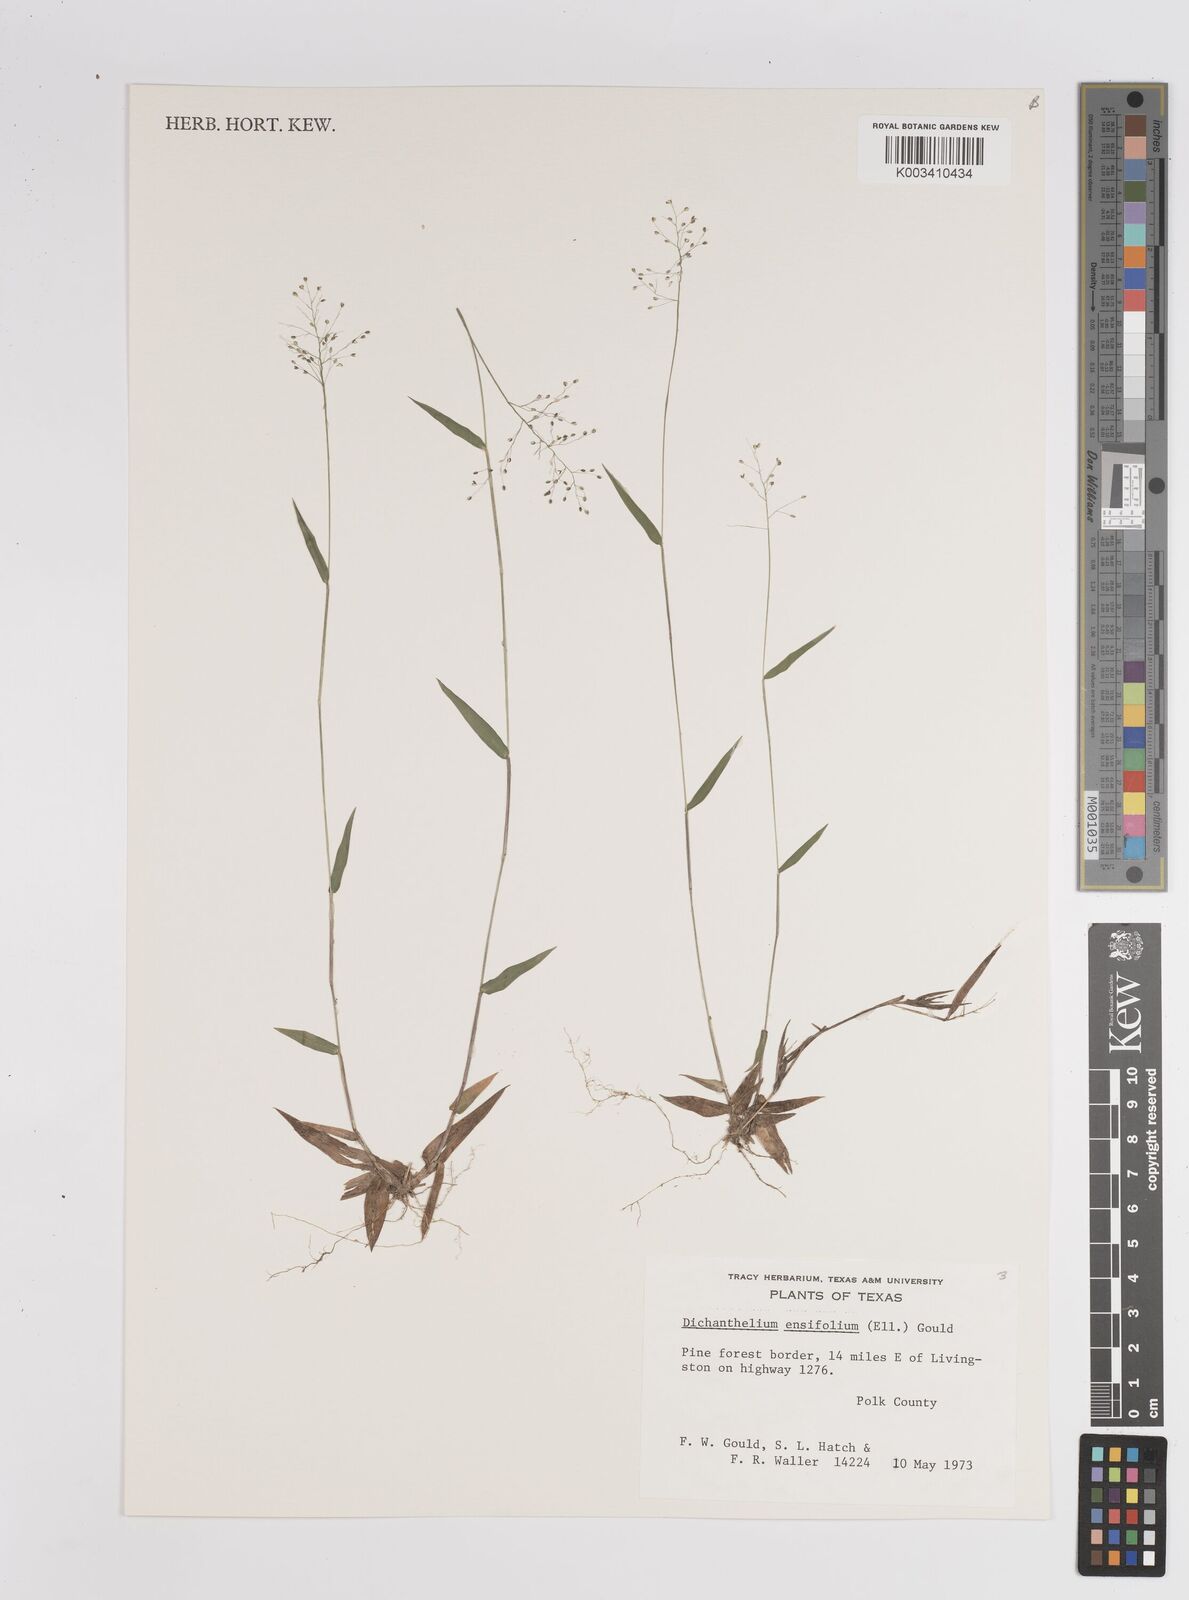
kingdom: Plantae
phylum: Tracheophyta
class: Liliopsida
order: Poales
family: Poaceae
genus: Dichanthelium
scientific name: Dichanthelium ensifolium
